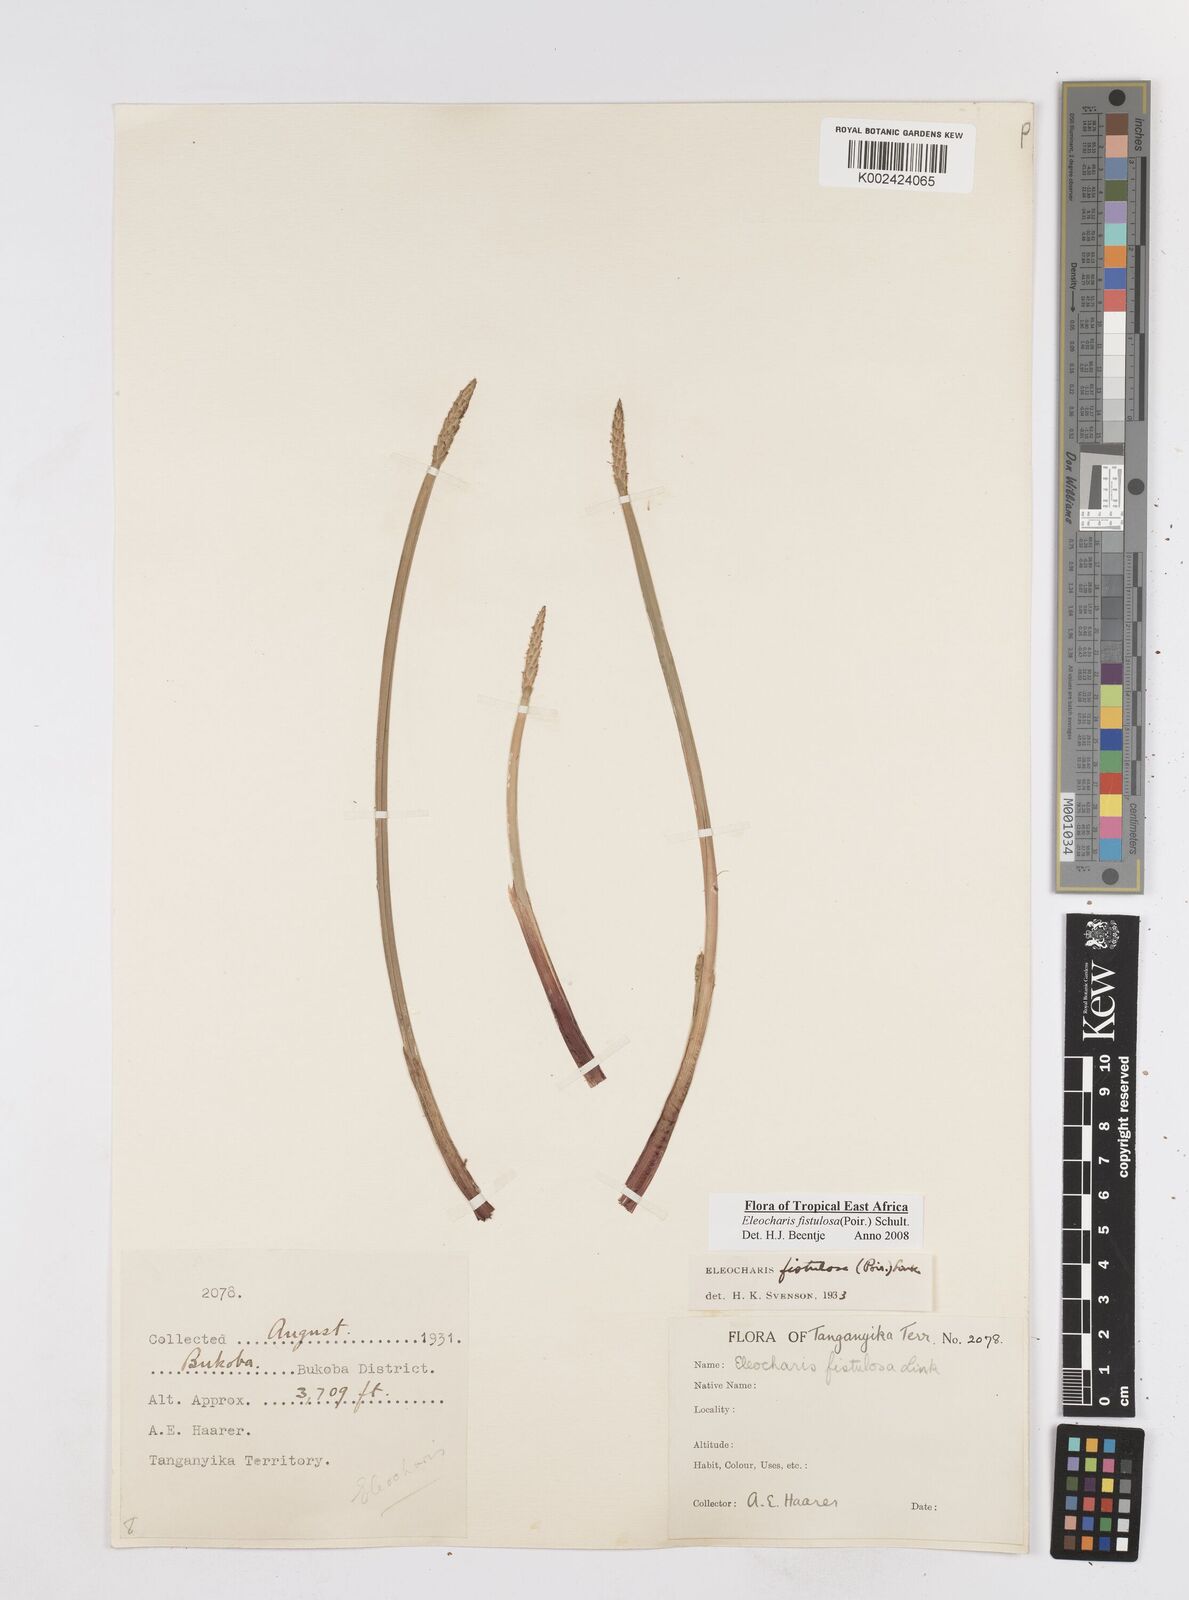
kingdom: Plantae
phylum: Tracheophyta
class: Liliopsida
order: Poales
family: Cyperaceae
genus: Eleocharis
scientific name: Eleocharis acutangula
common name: Acute spikerush
